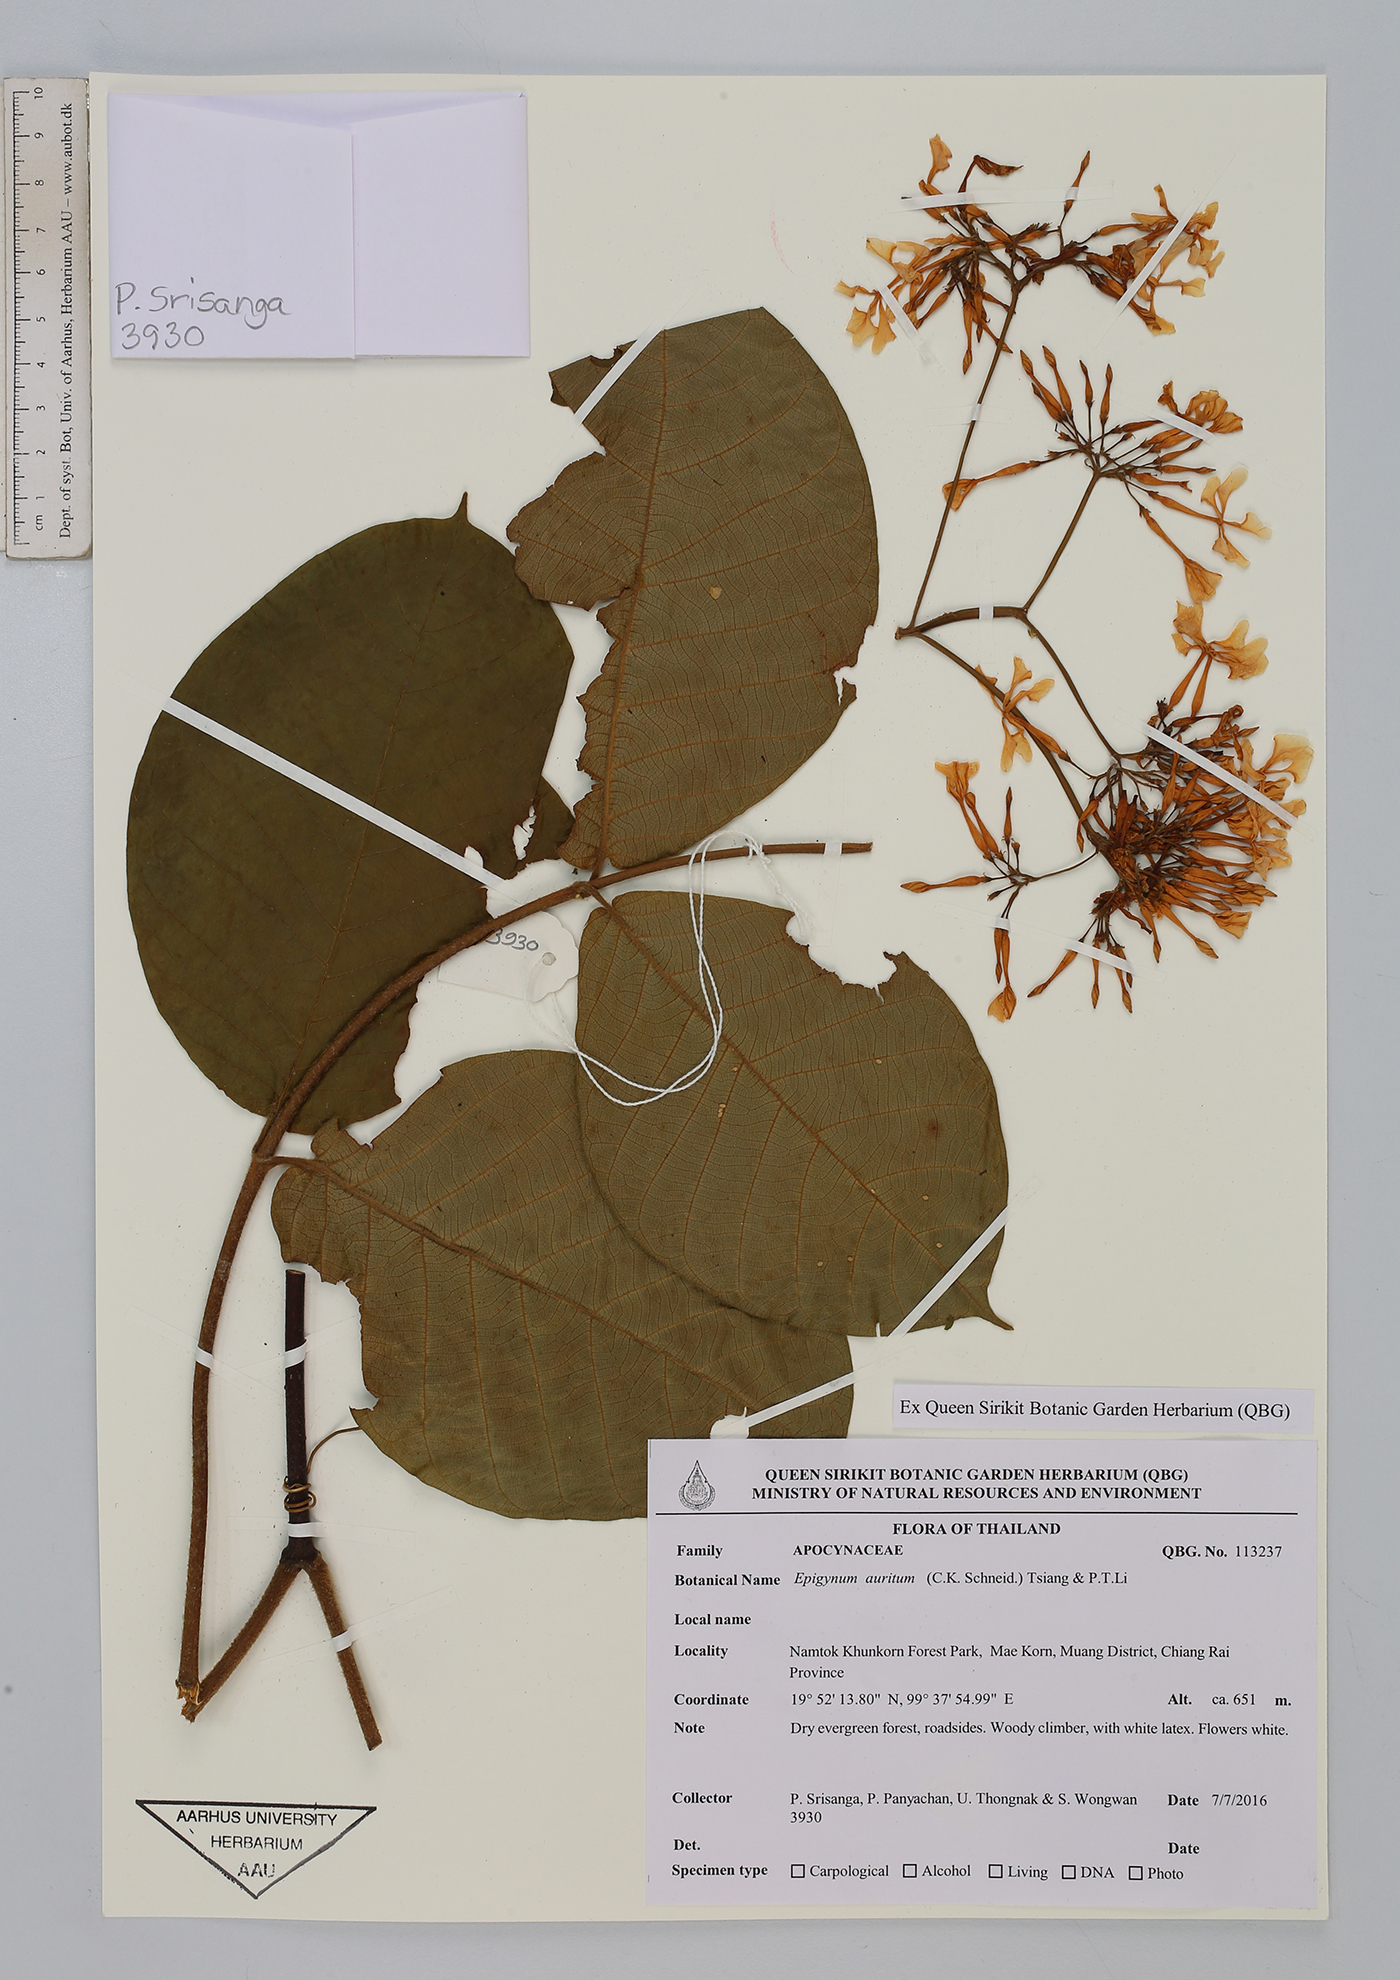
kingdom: Plantae
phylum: Tracheophyta
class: Magnoliopsida
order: Gentianales
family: Apocynaceae
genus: Epigynum
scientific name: Epigynum auritum
